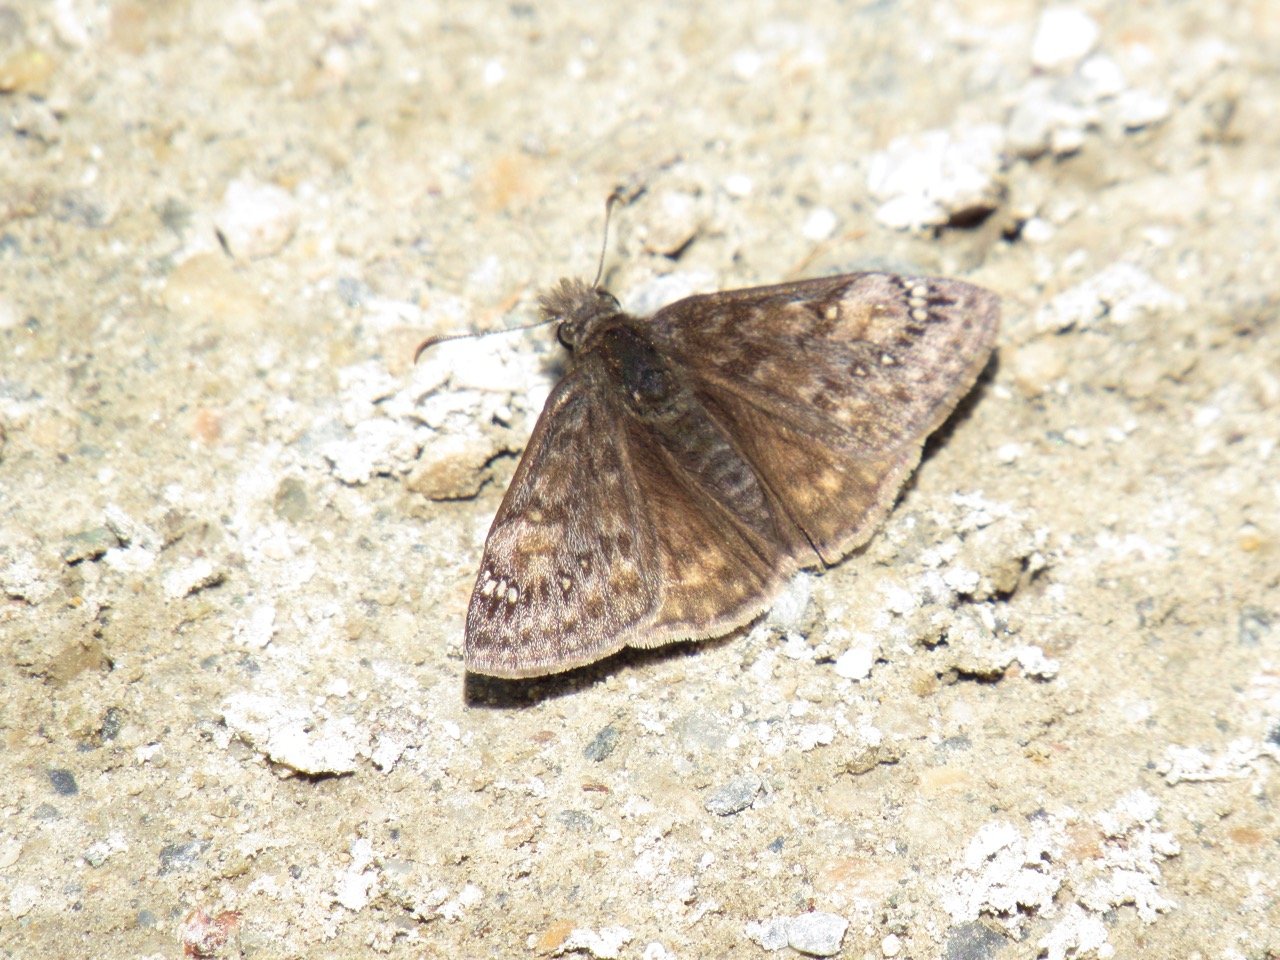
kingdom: Animalia
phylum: Arthropoda
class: Insecta
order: Lepidoptera
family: Hesperiidae
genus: Gesta
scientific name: Gesta
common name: Juvenal's Duskywing
